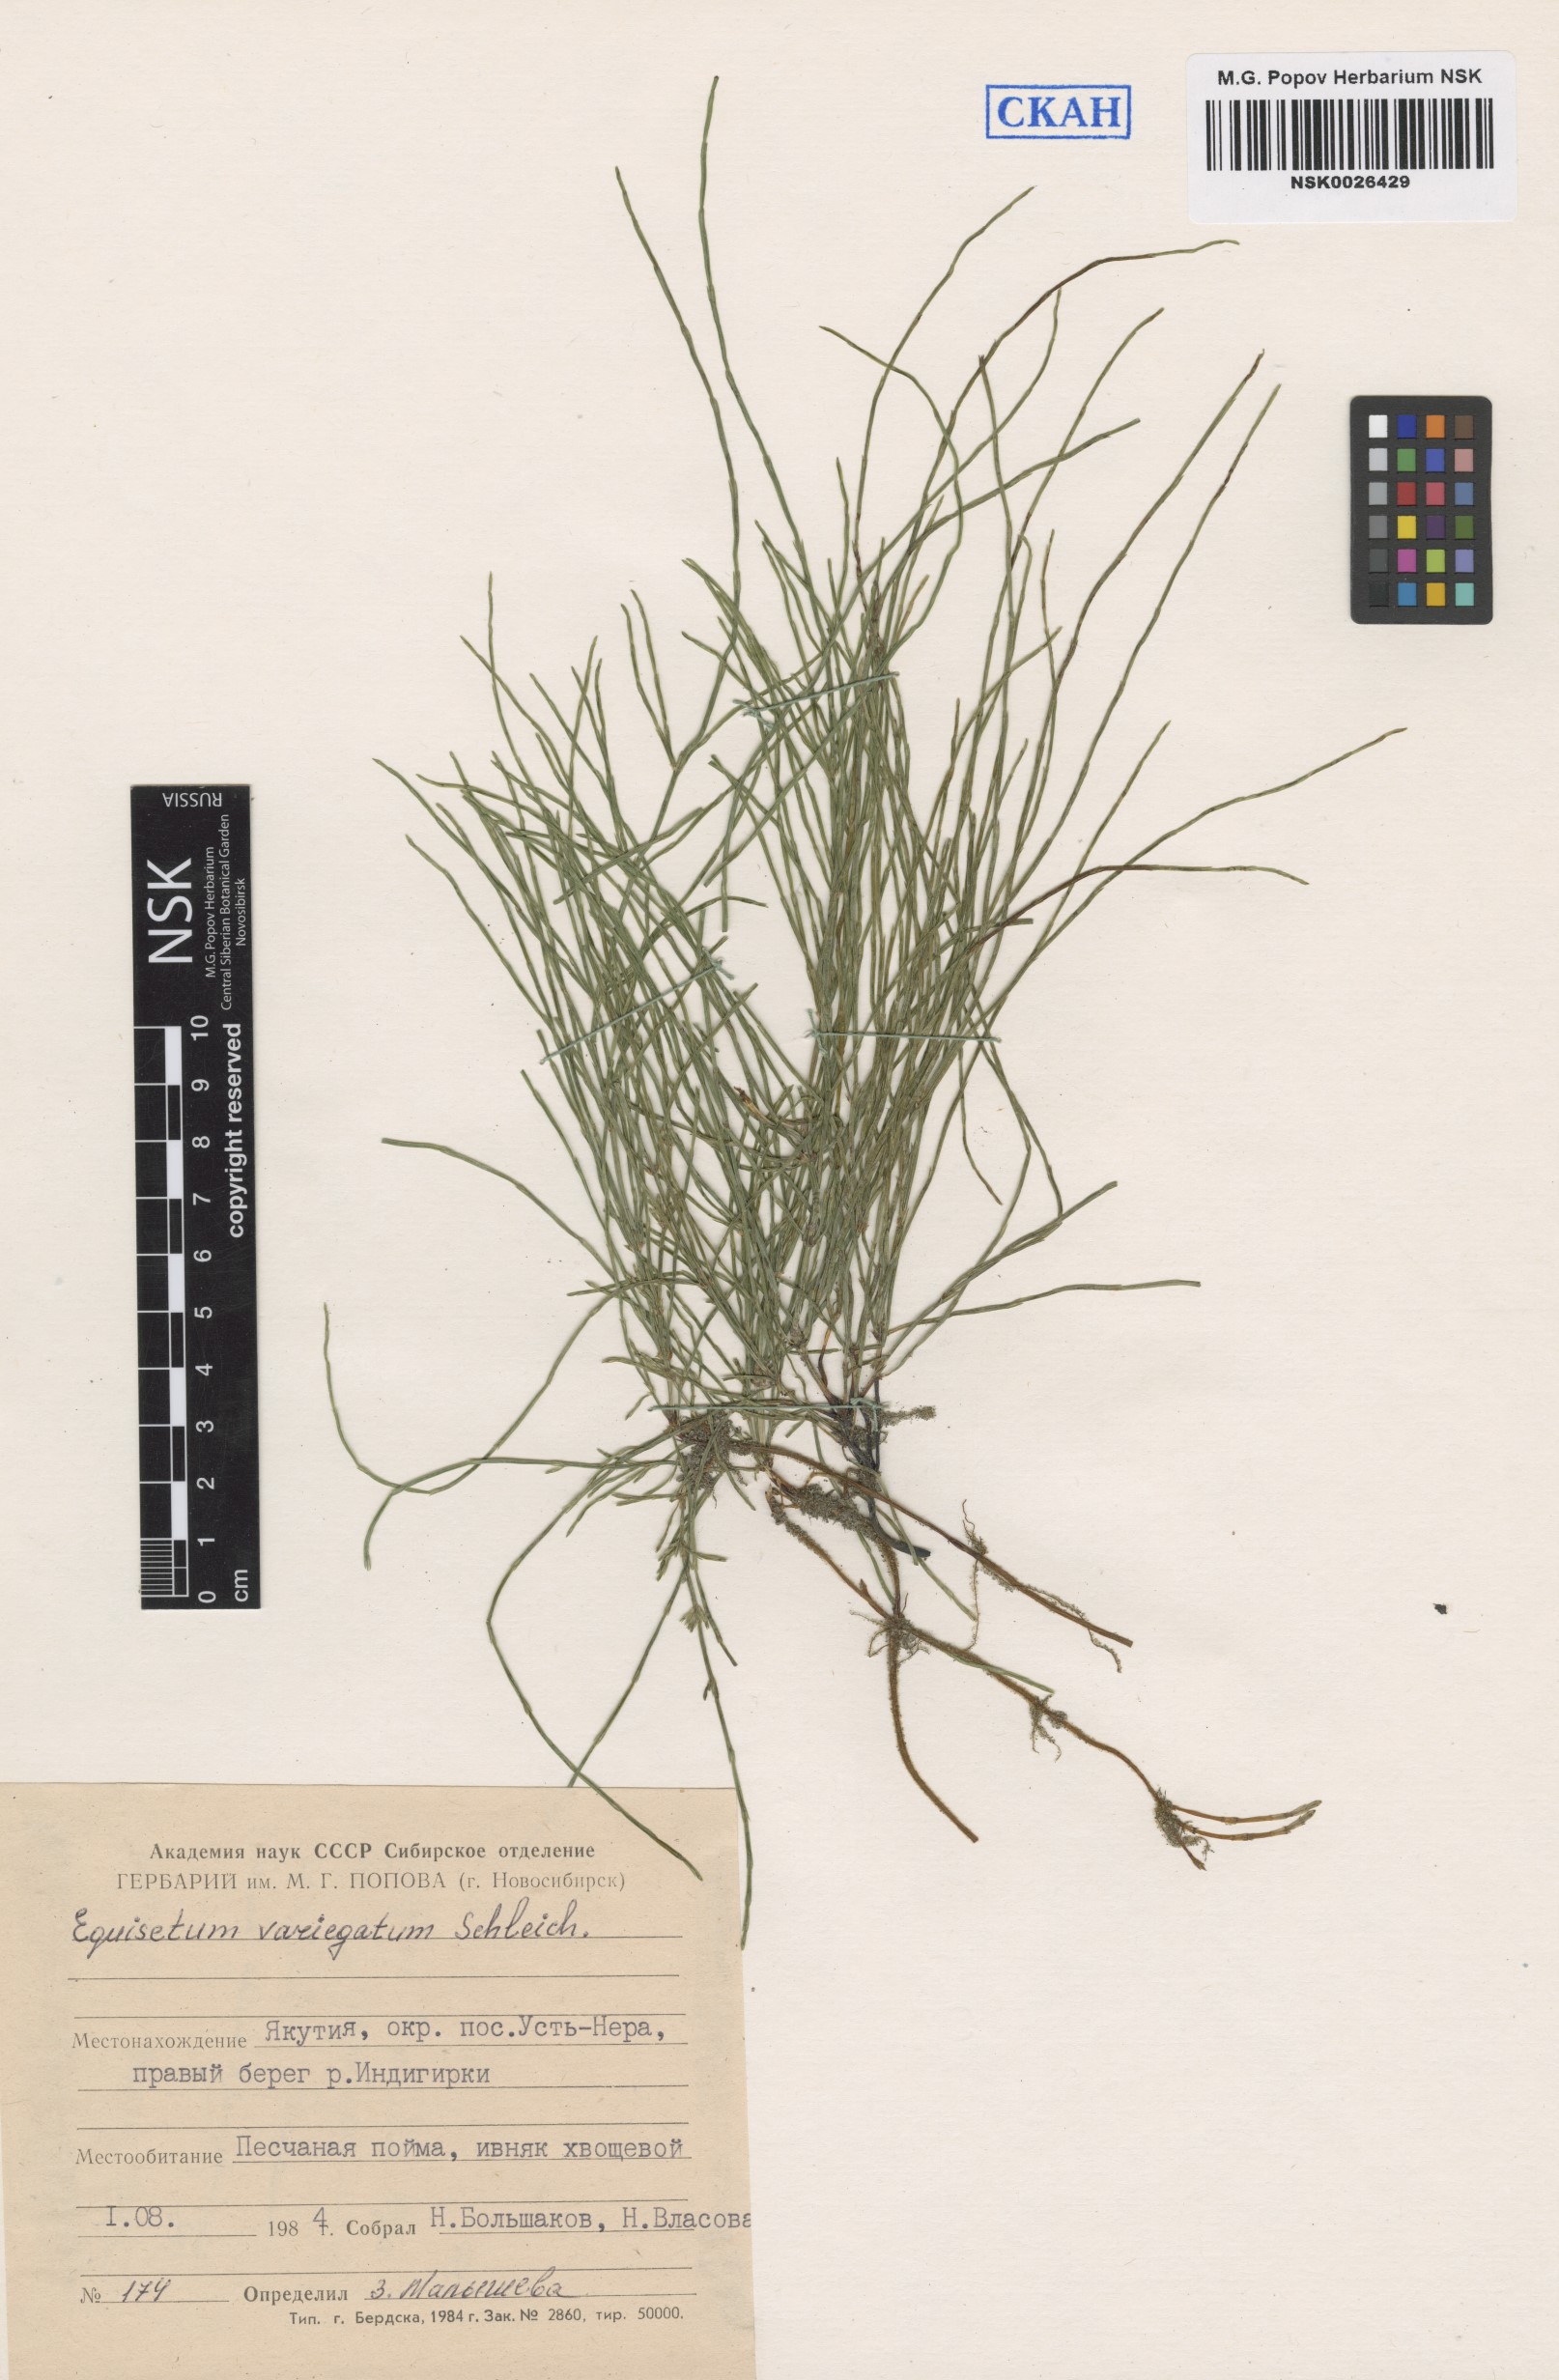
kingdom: Plantae
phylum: Tracheophyta
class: Polypodiopsida
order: Equisetales
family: Equisetaceae
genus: Equisetum
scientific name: Equisetum variegatum
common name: Variegated horsetail
